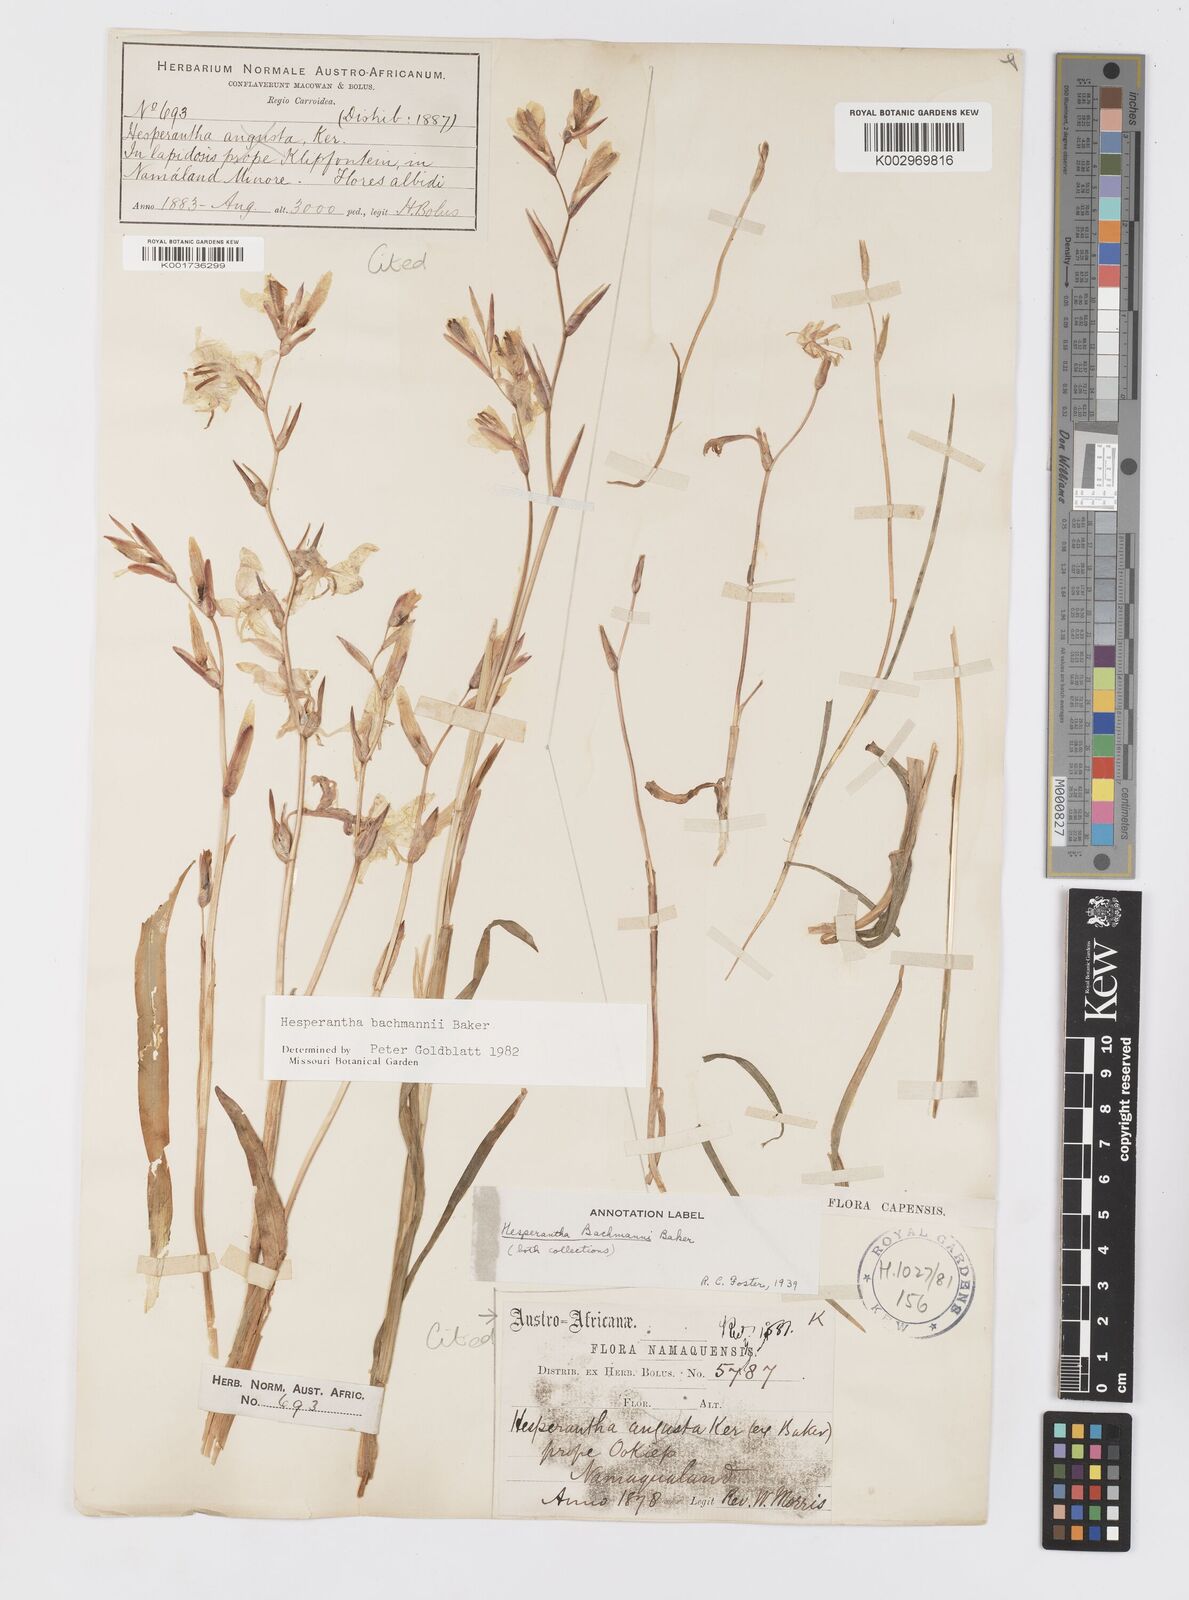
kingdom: Plantae
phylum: Tracheophyta
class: Liliopsida
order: Asparagales
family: Iridaceae
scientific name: Iridaceae
